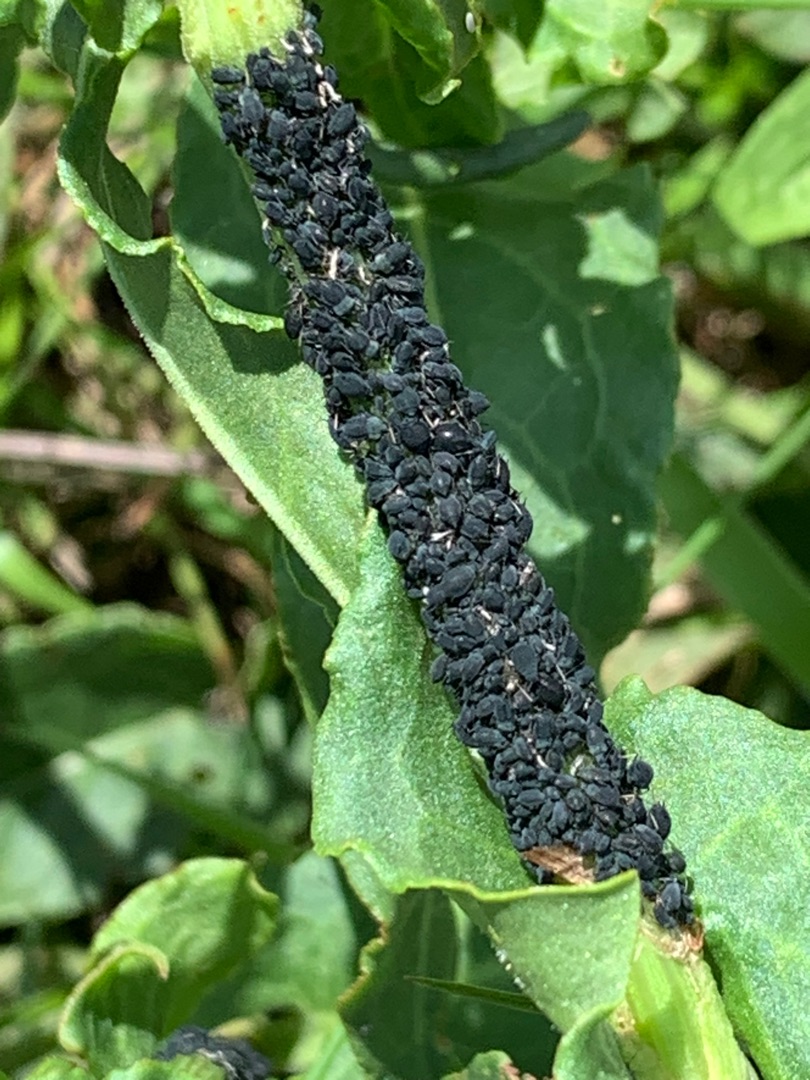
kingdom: Animalia
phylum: Arthropoda
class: Insecta
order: Hemiptera
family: Aphididae
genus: Aphis
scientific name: Aphis sambuci
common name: Hyldebladlus
